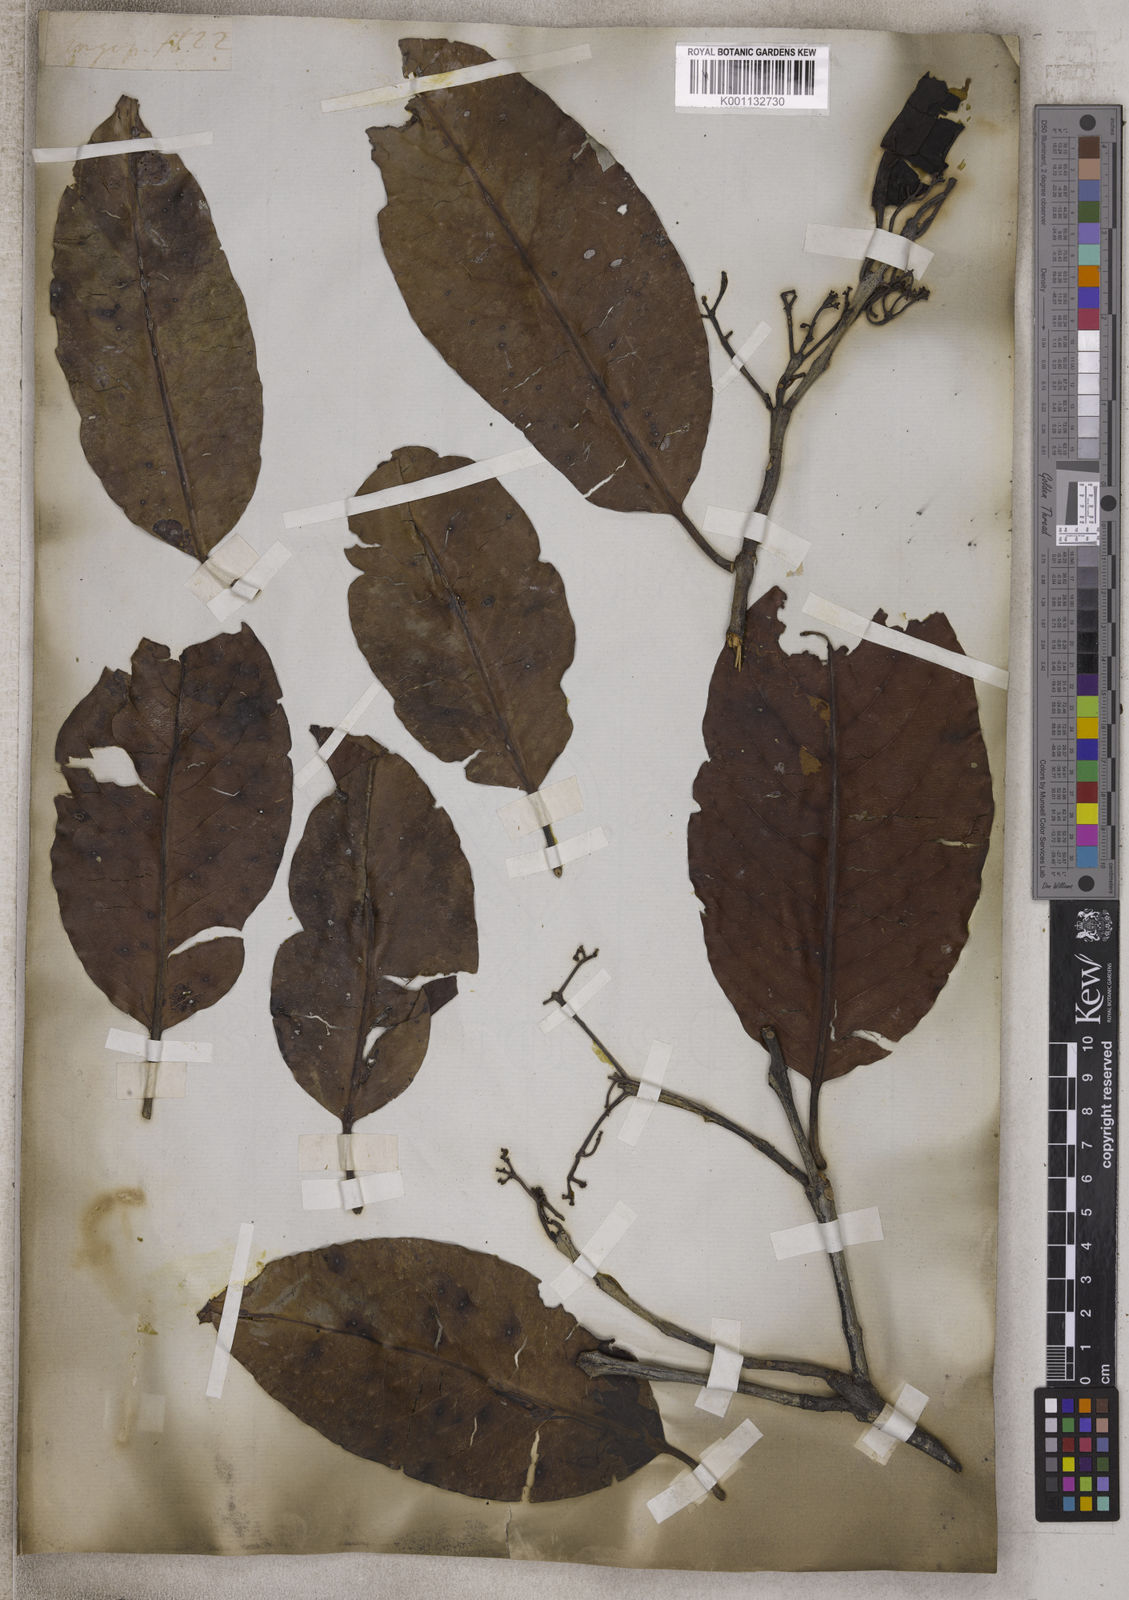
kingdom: Plantae
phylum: Tracheophyta
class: Magnoliopsida
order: Celastrales
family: Celastraceae
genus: Lophopetalum
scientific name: Lophopetalum
